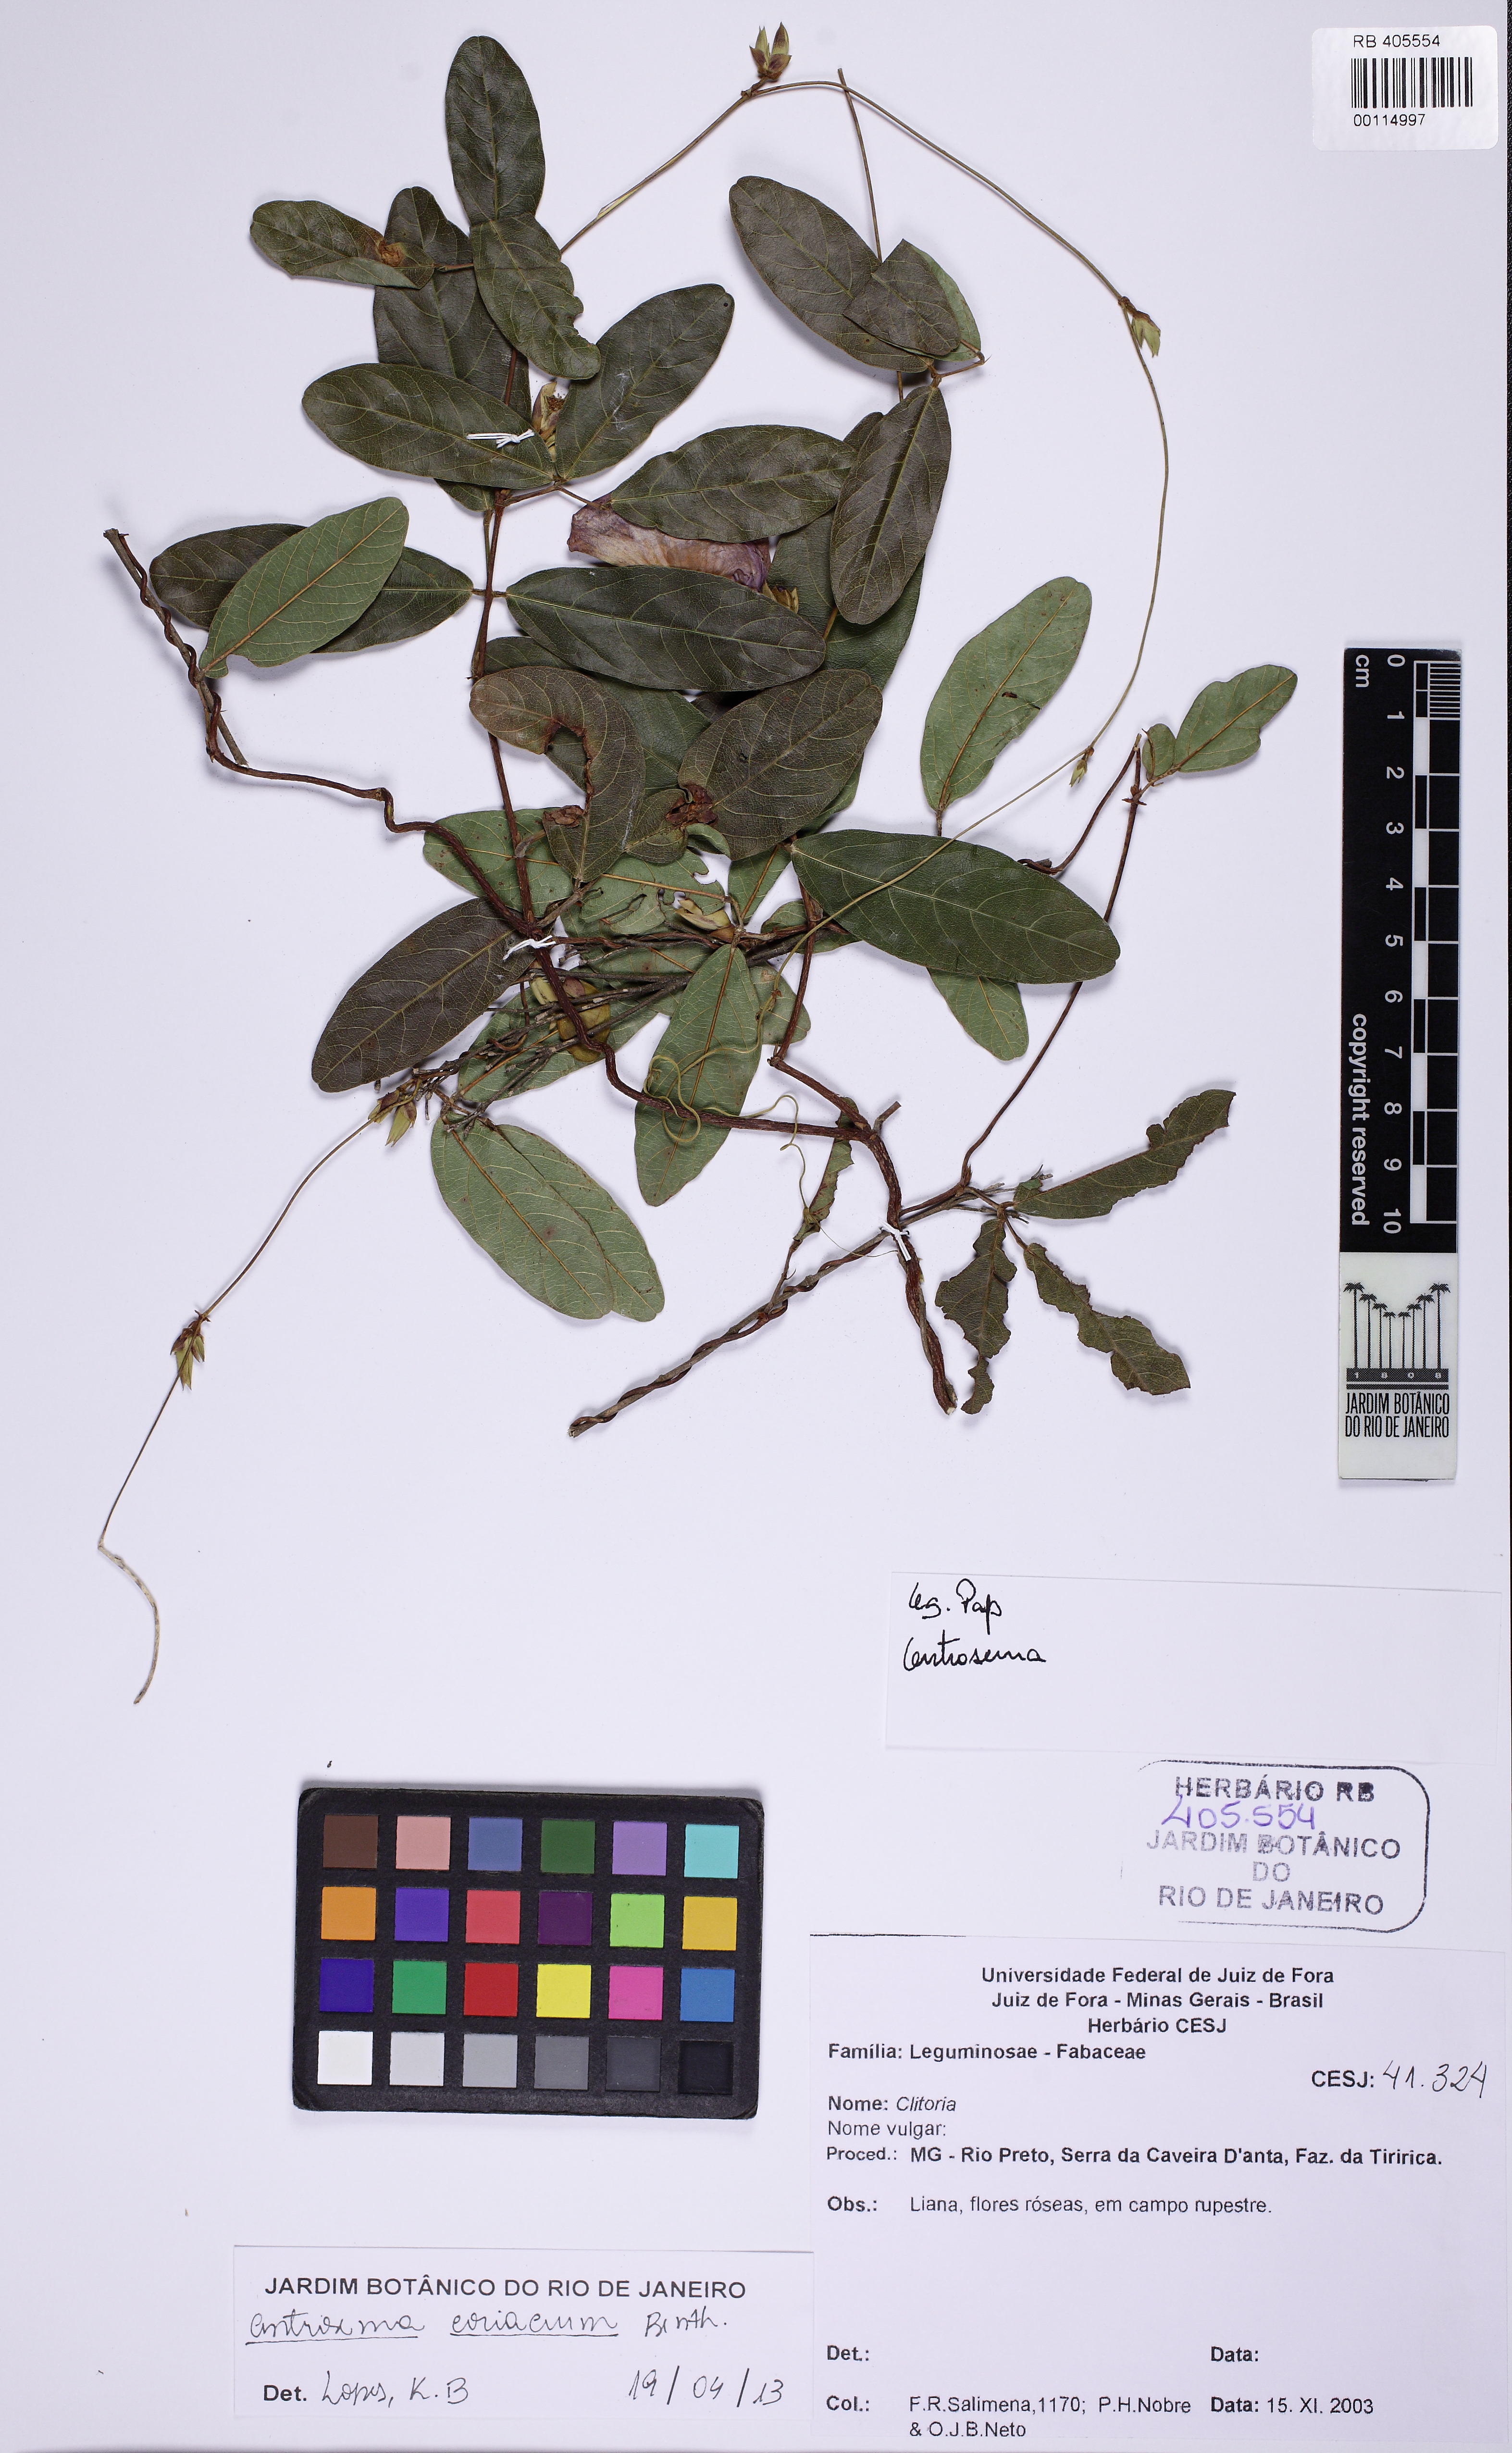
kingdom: Plantae
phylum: Tracheophyta
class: Magnoliopsida
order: Fabales
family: Fabaceae
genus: Centrosema
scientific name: Centrosema coriaceum
